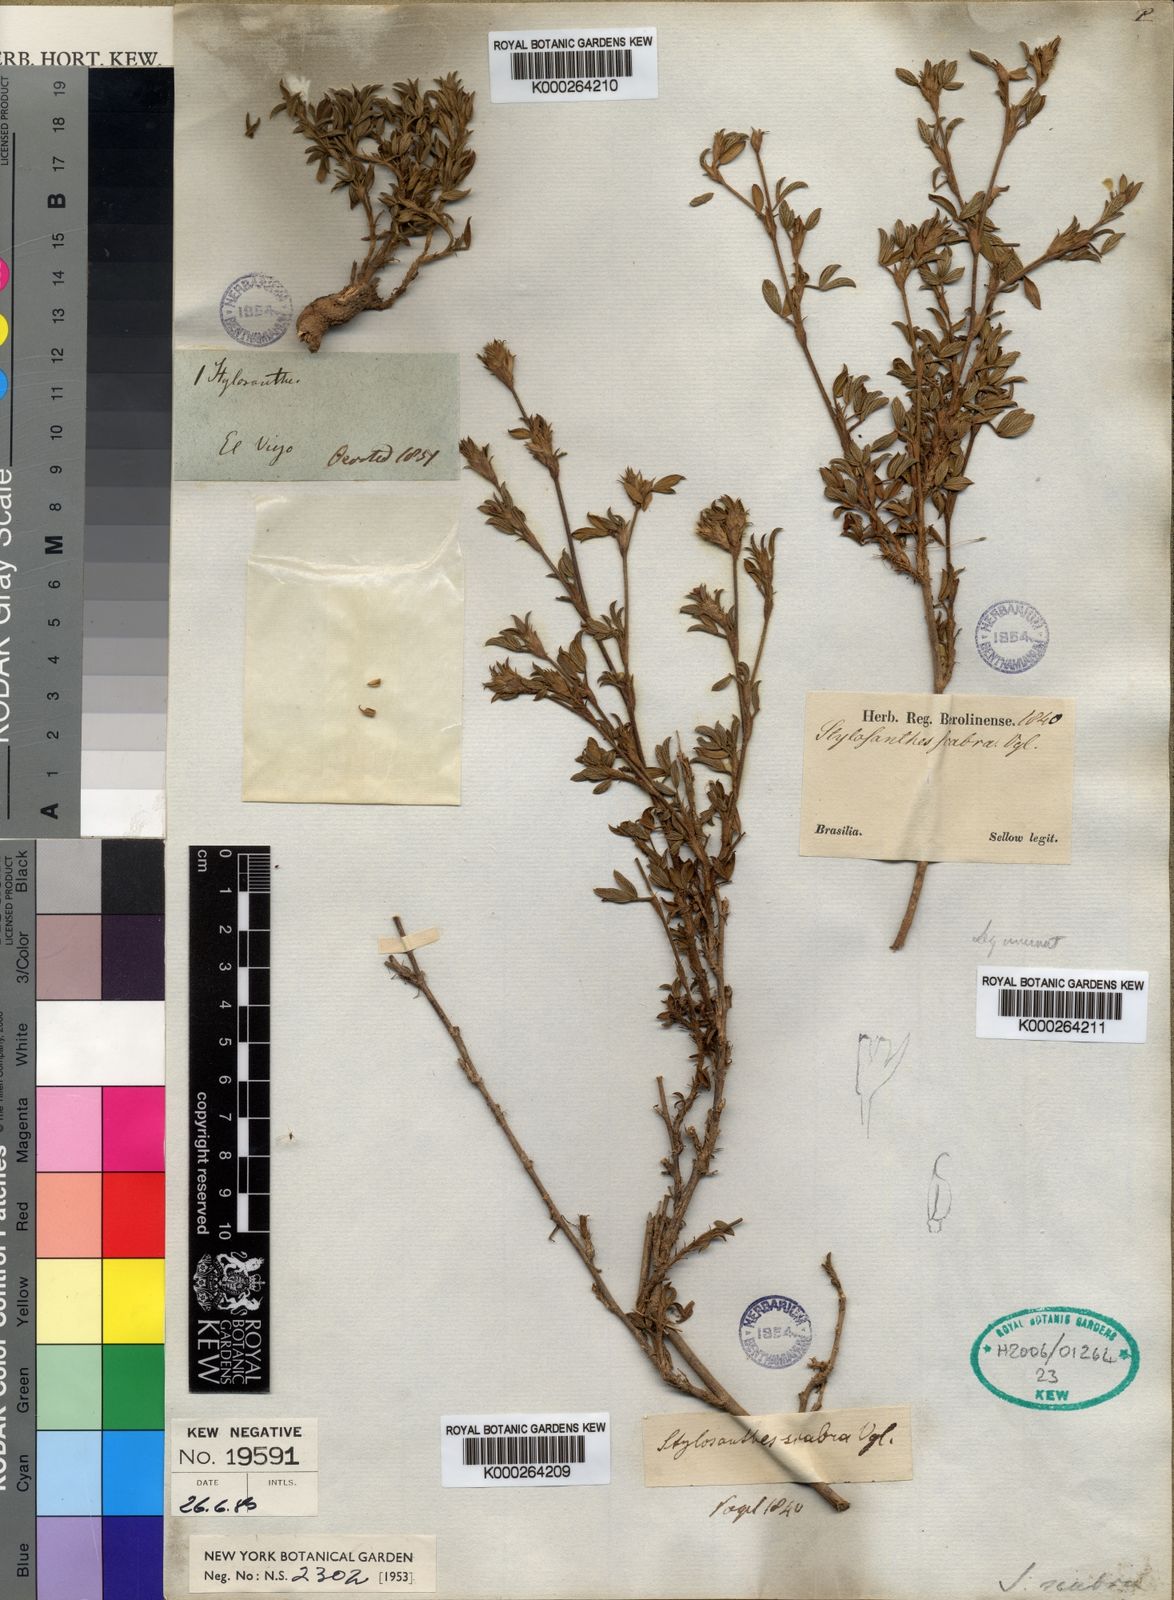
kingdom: Plantae
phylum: Tracheophyta
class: Magnoliopsida
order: Fabales
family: Fabaceae
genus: Stylosanthes
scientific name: Stylosanthes scabra
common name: Pencilflower
